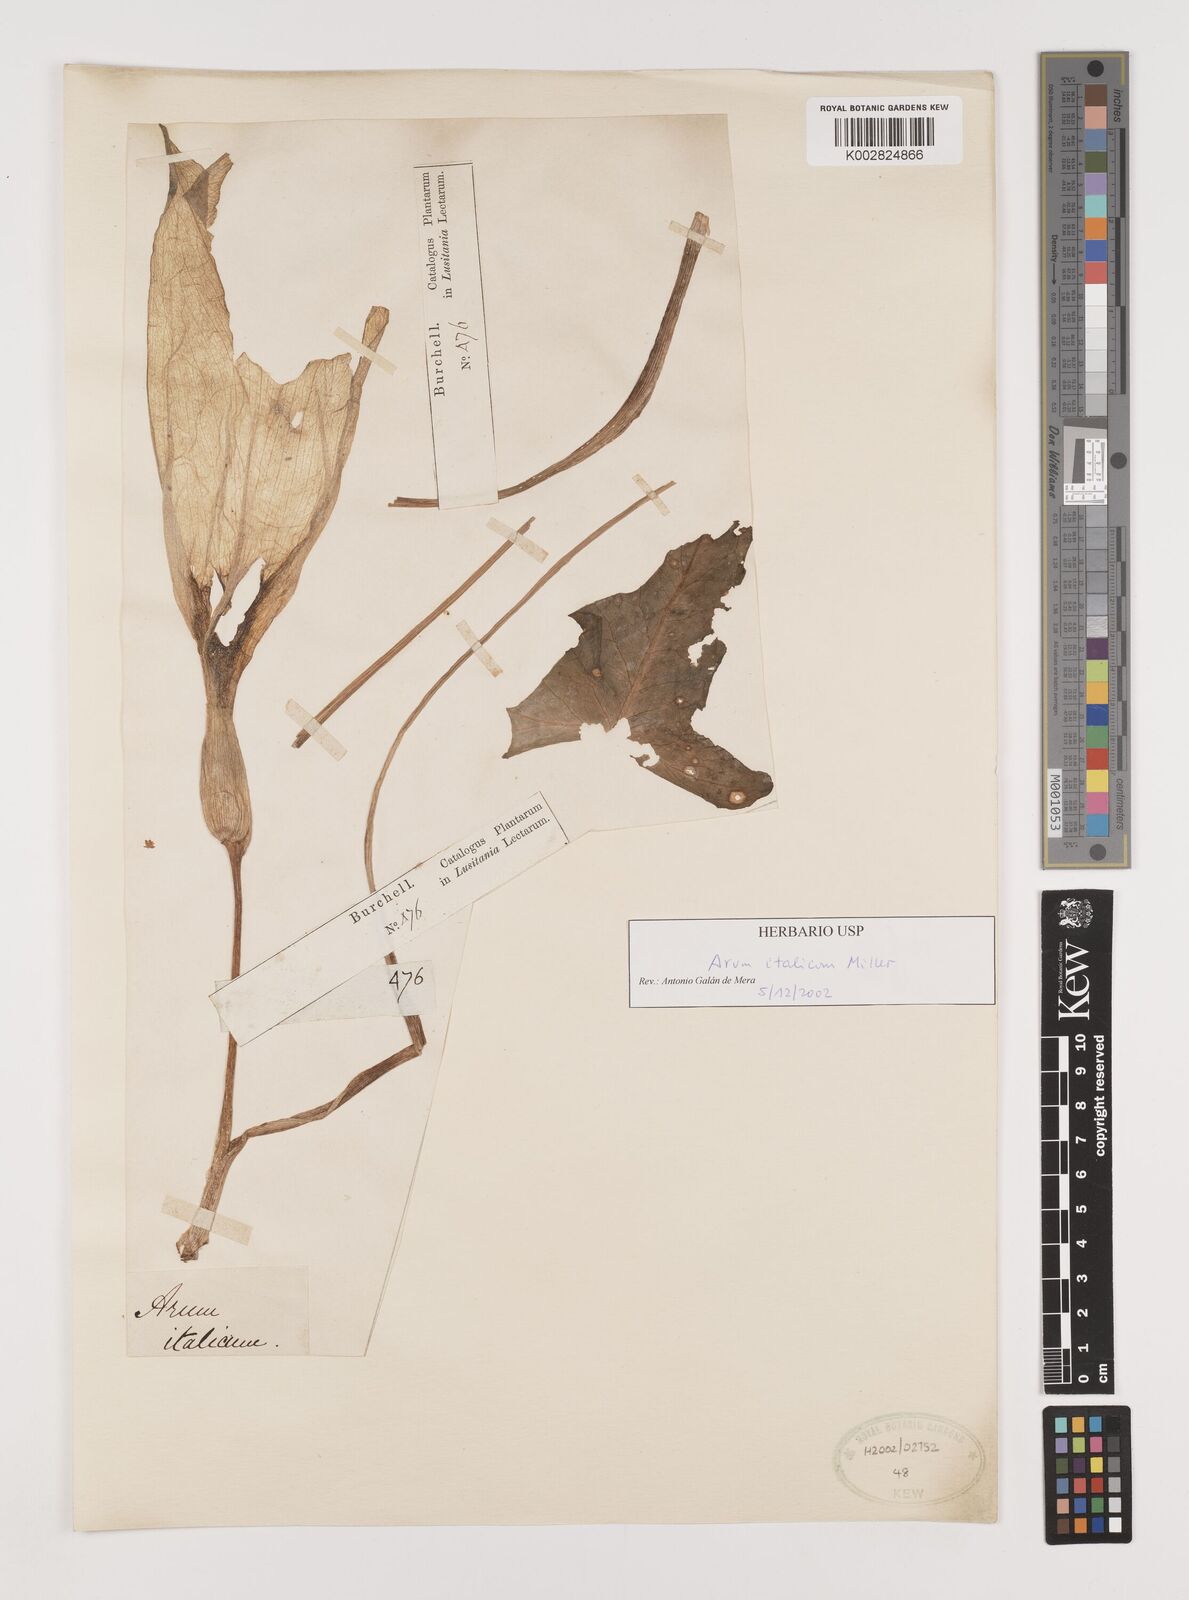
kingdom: Plantae
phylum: Tracheophyta
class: Liliopsida
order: Alismatales
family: Araceae
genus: Arum
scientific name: Arum italicum
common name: Italian lords-and-ladies
